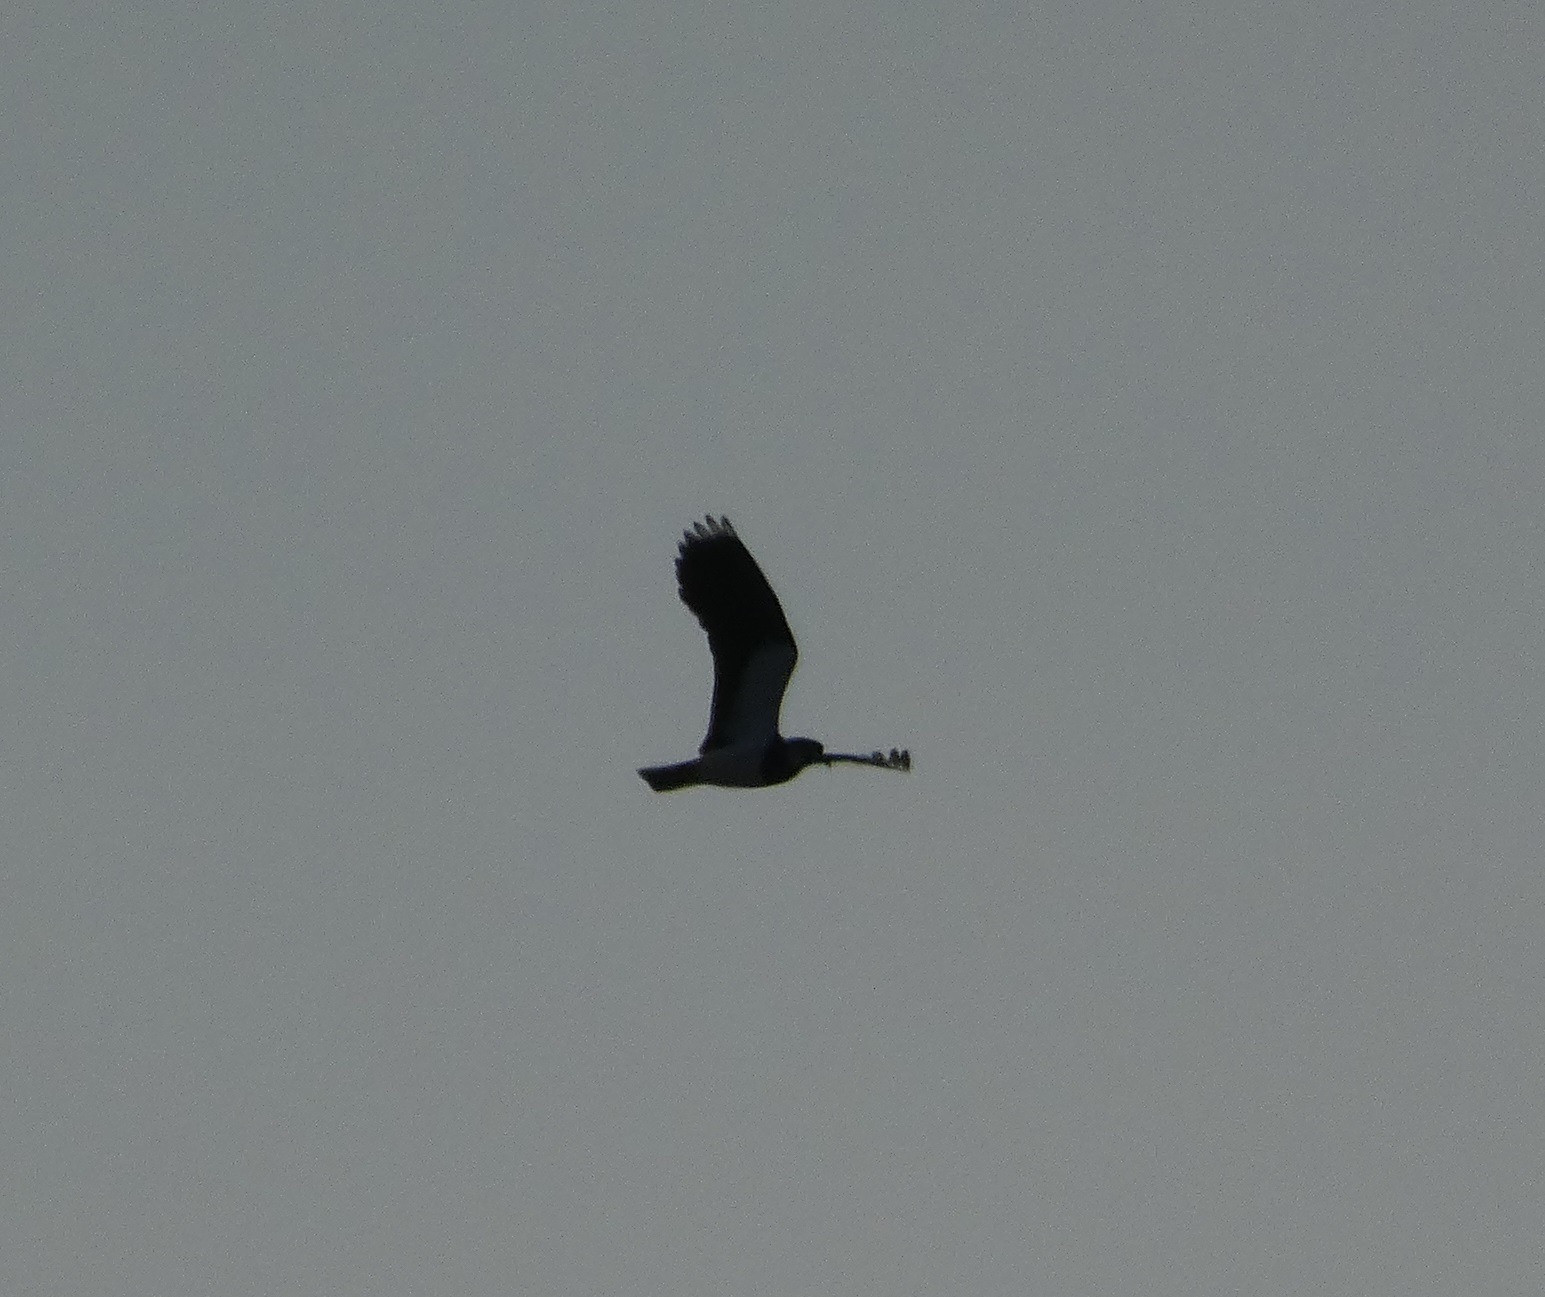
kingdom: Animalia
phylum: Chordata
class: Aves
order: Charadriiformes
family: Charadriidae
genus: Vanellus
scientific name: Vanellus vanellus
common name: Vibe
